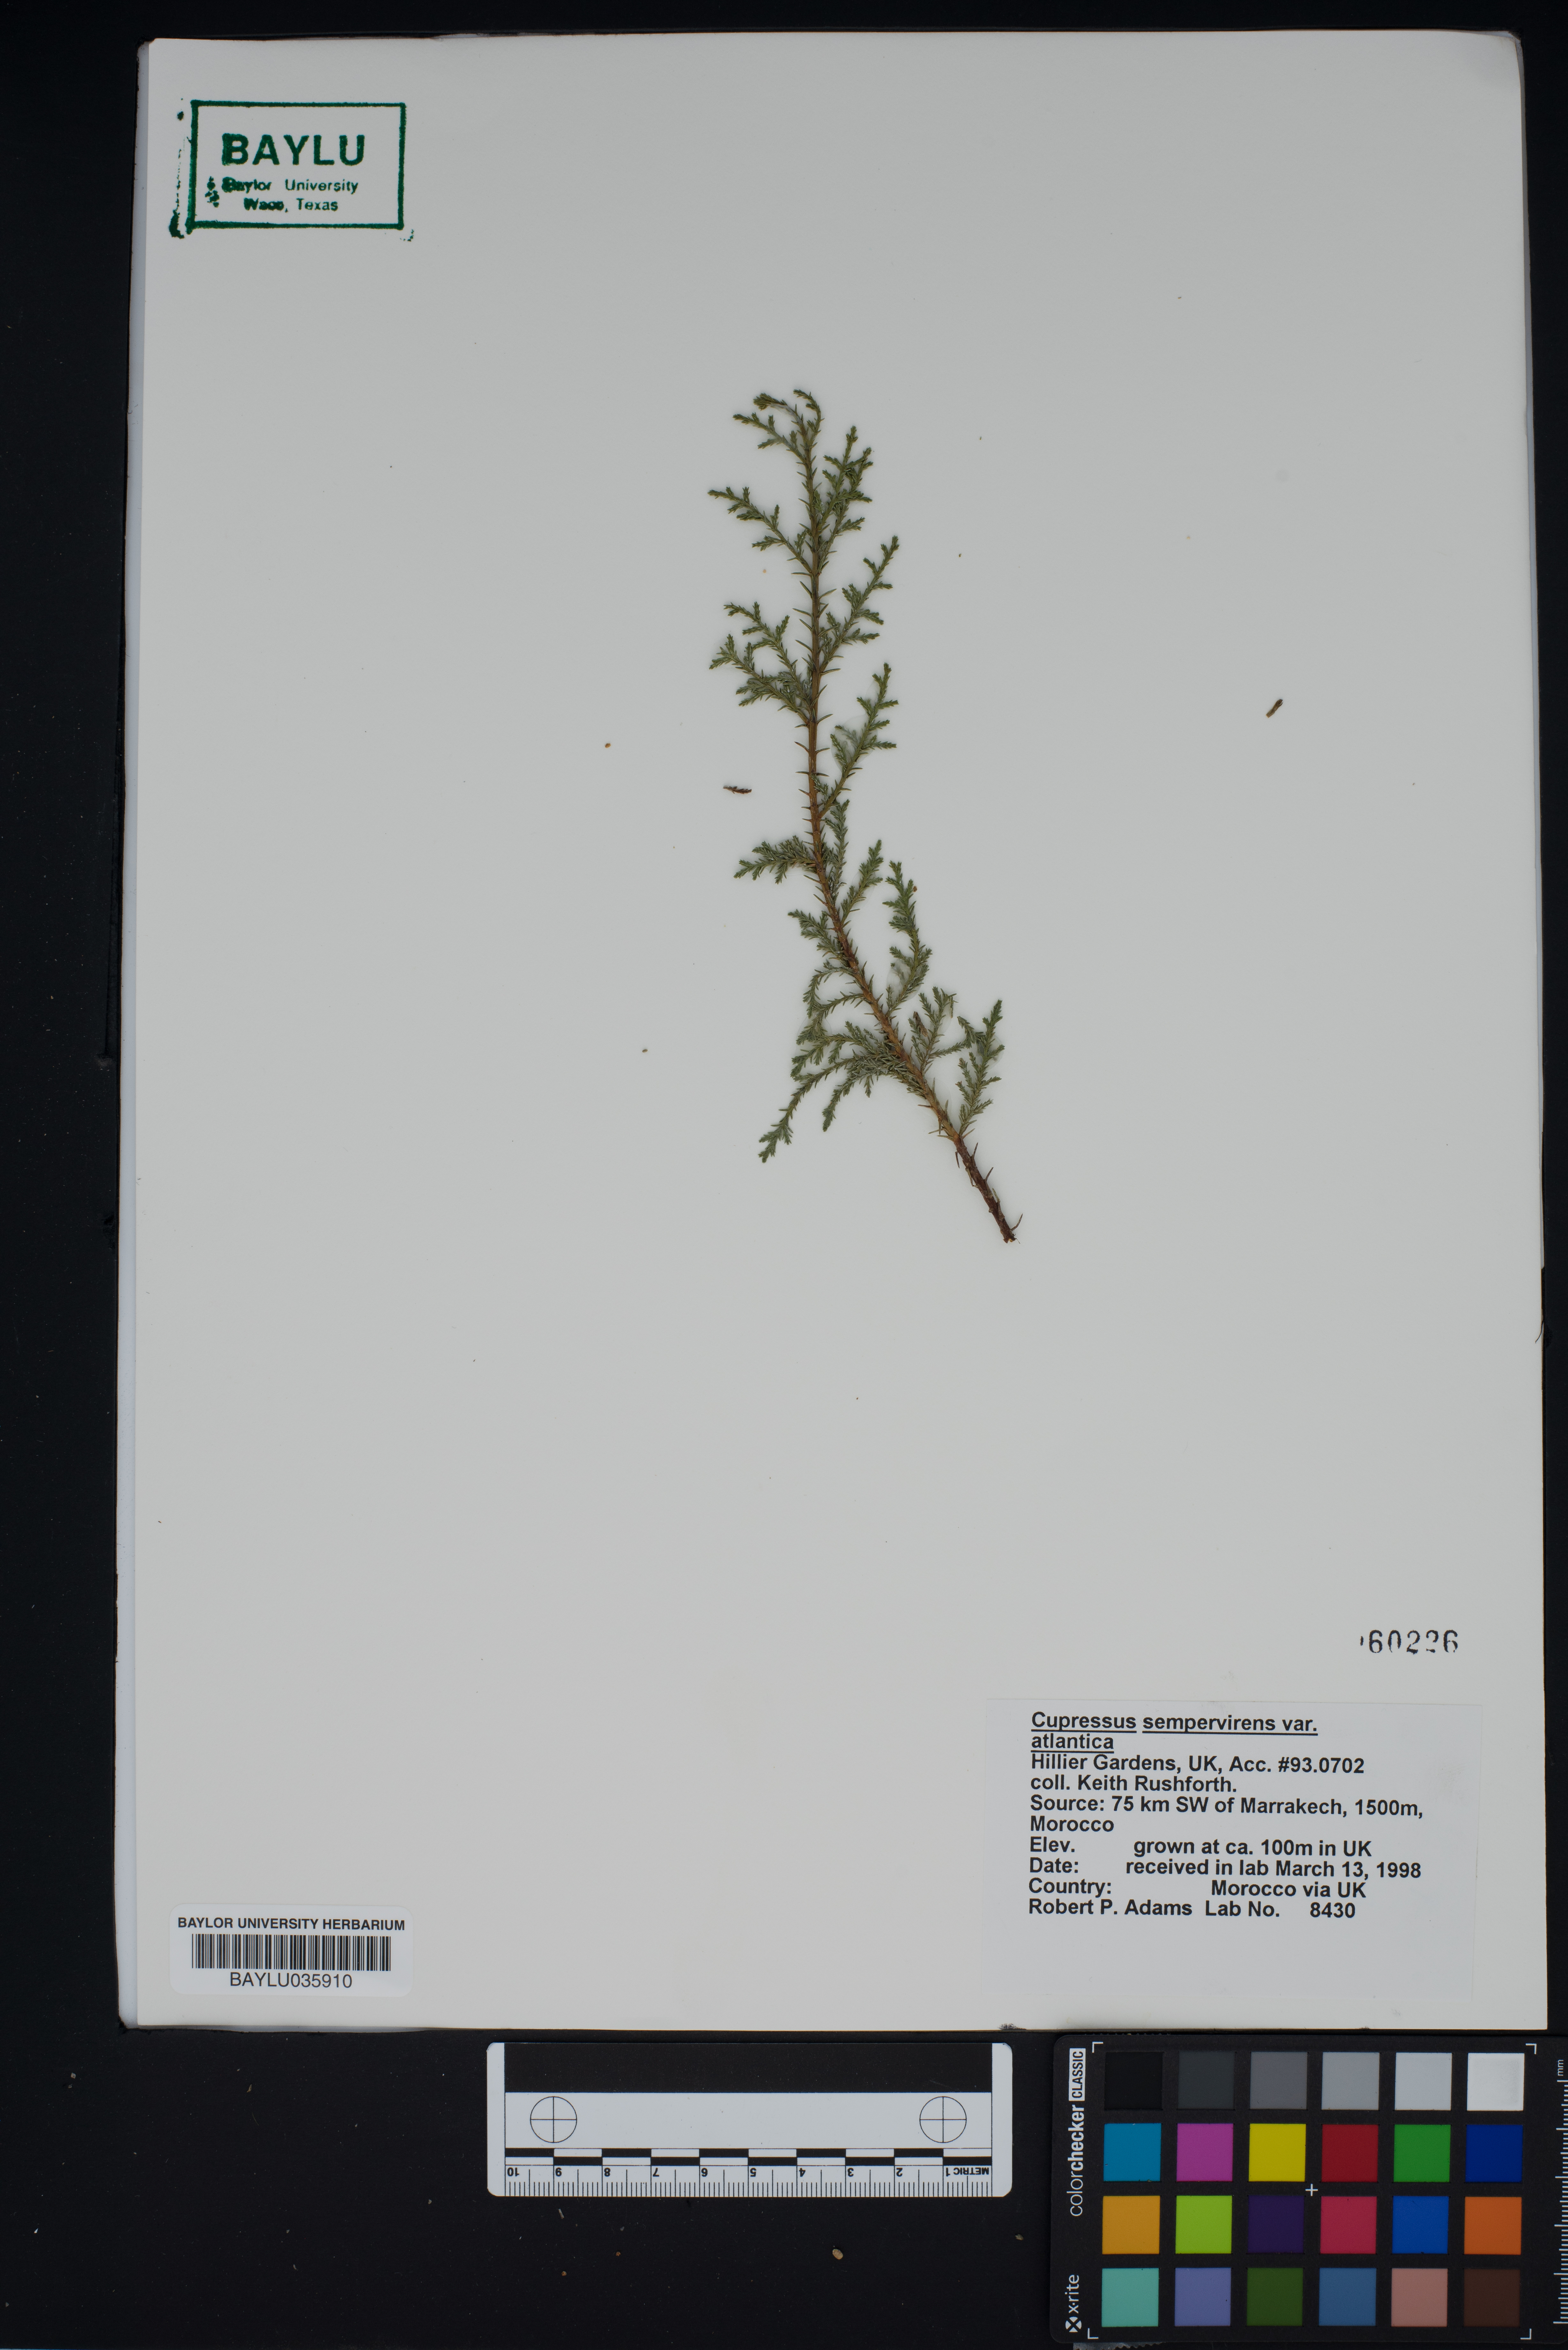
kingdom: Plantae
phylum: Tracheophyta
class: Pinopsida
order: Pinales
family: Cupressaceae
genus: Cupressus
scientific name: Cupressus dupreziana
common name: Moroccan cypress
